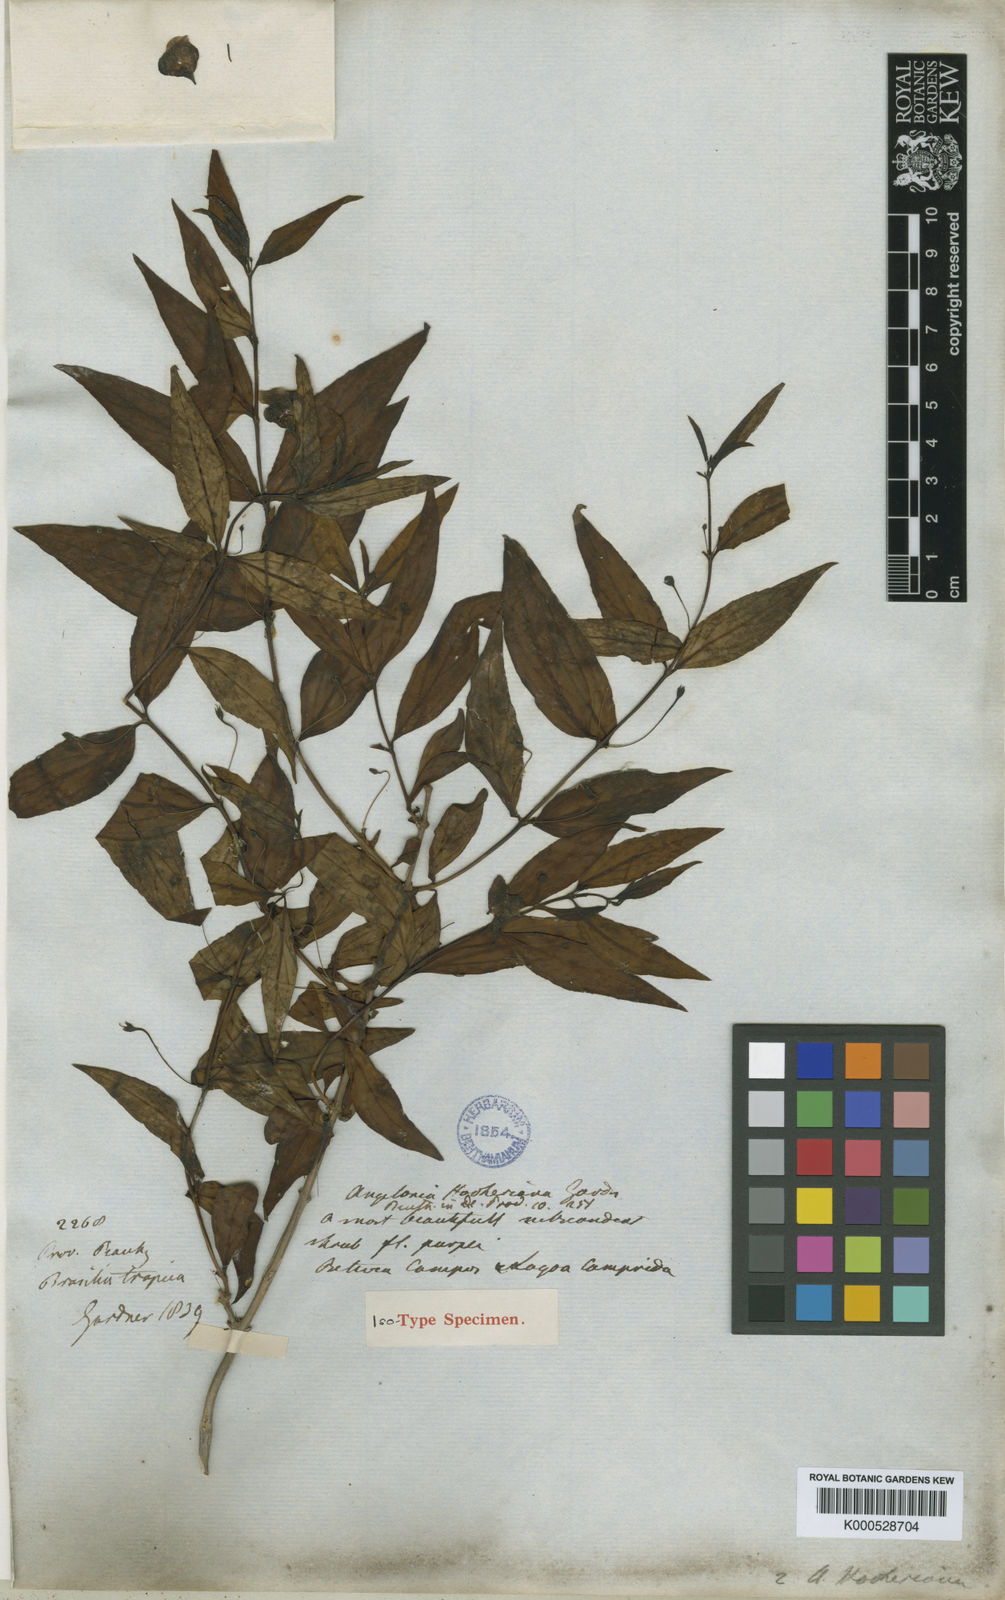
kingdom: Plantae
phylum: Tracheophyta
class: Magnoliopsida
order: Lamiales
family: Plantaginaceae
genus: Angelonia
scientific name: Angelonia campestris
